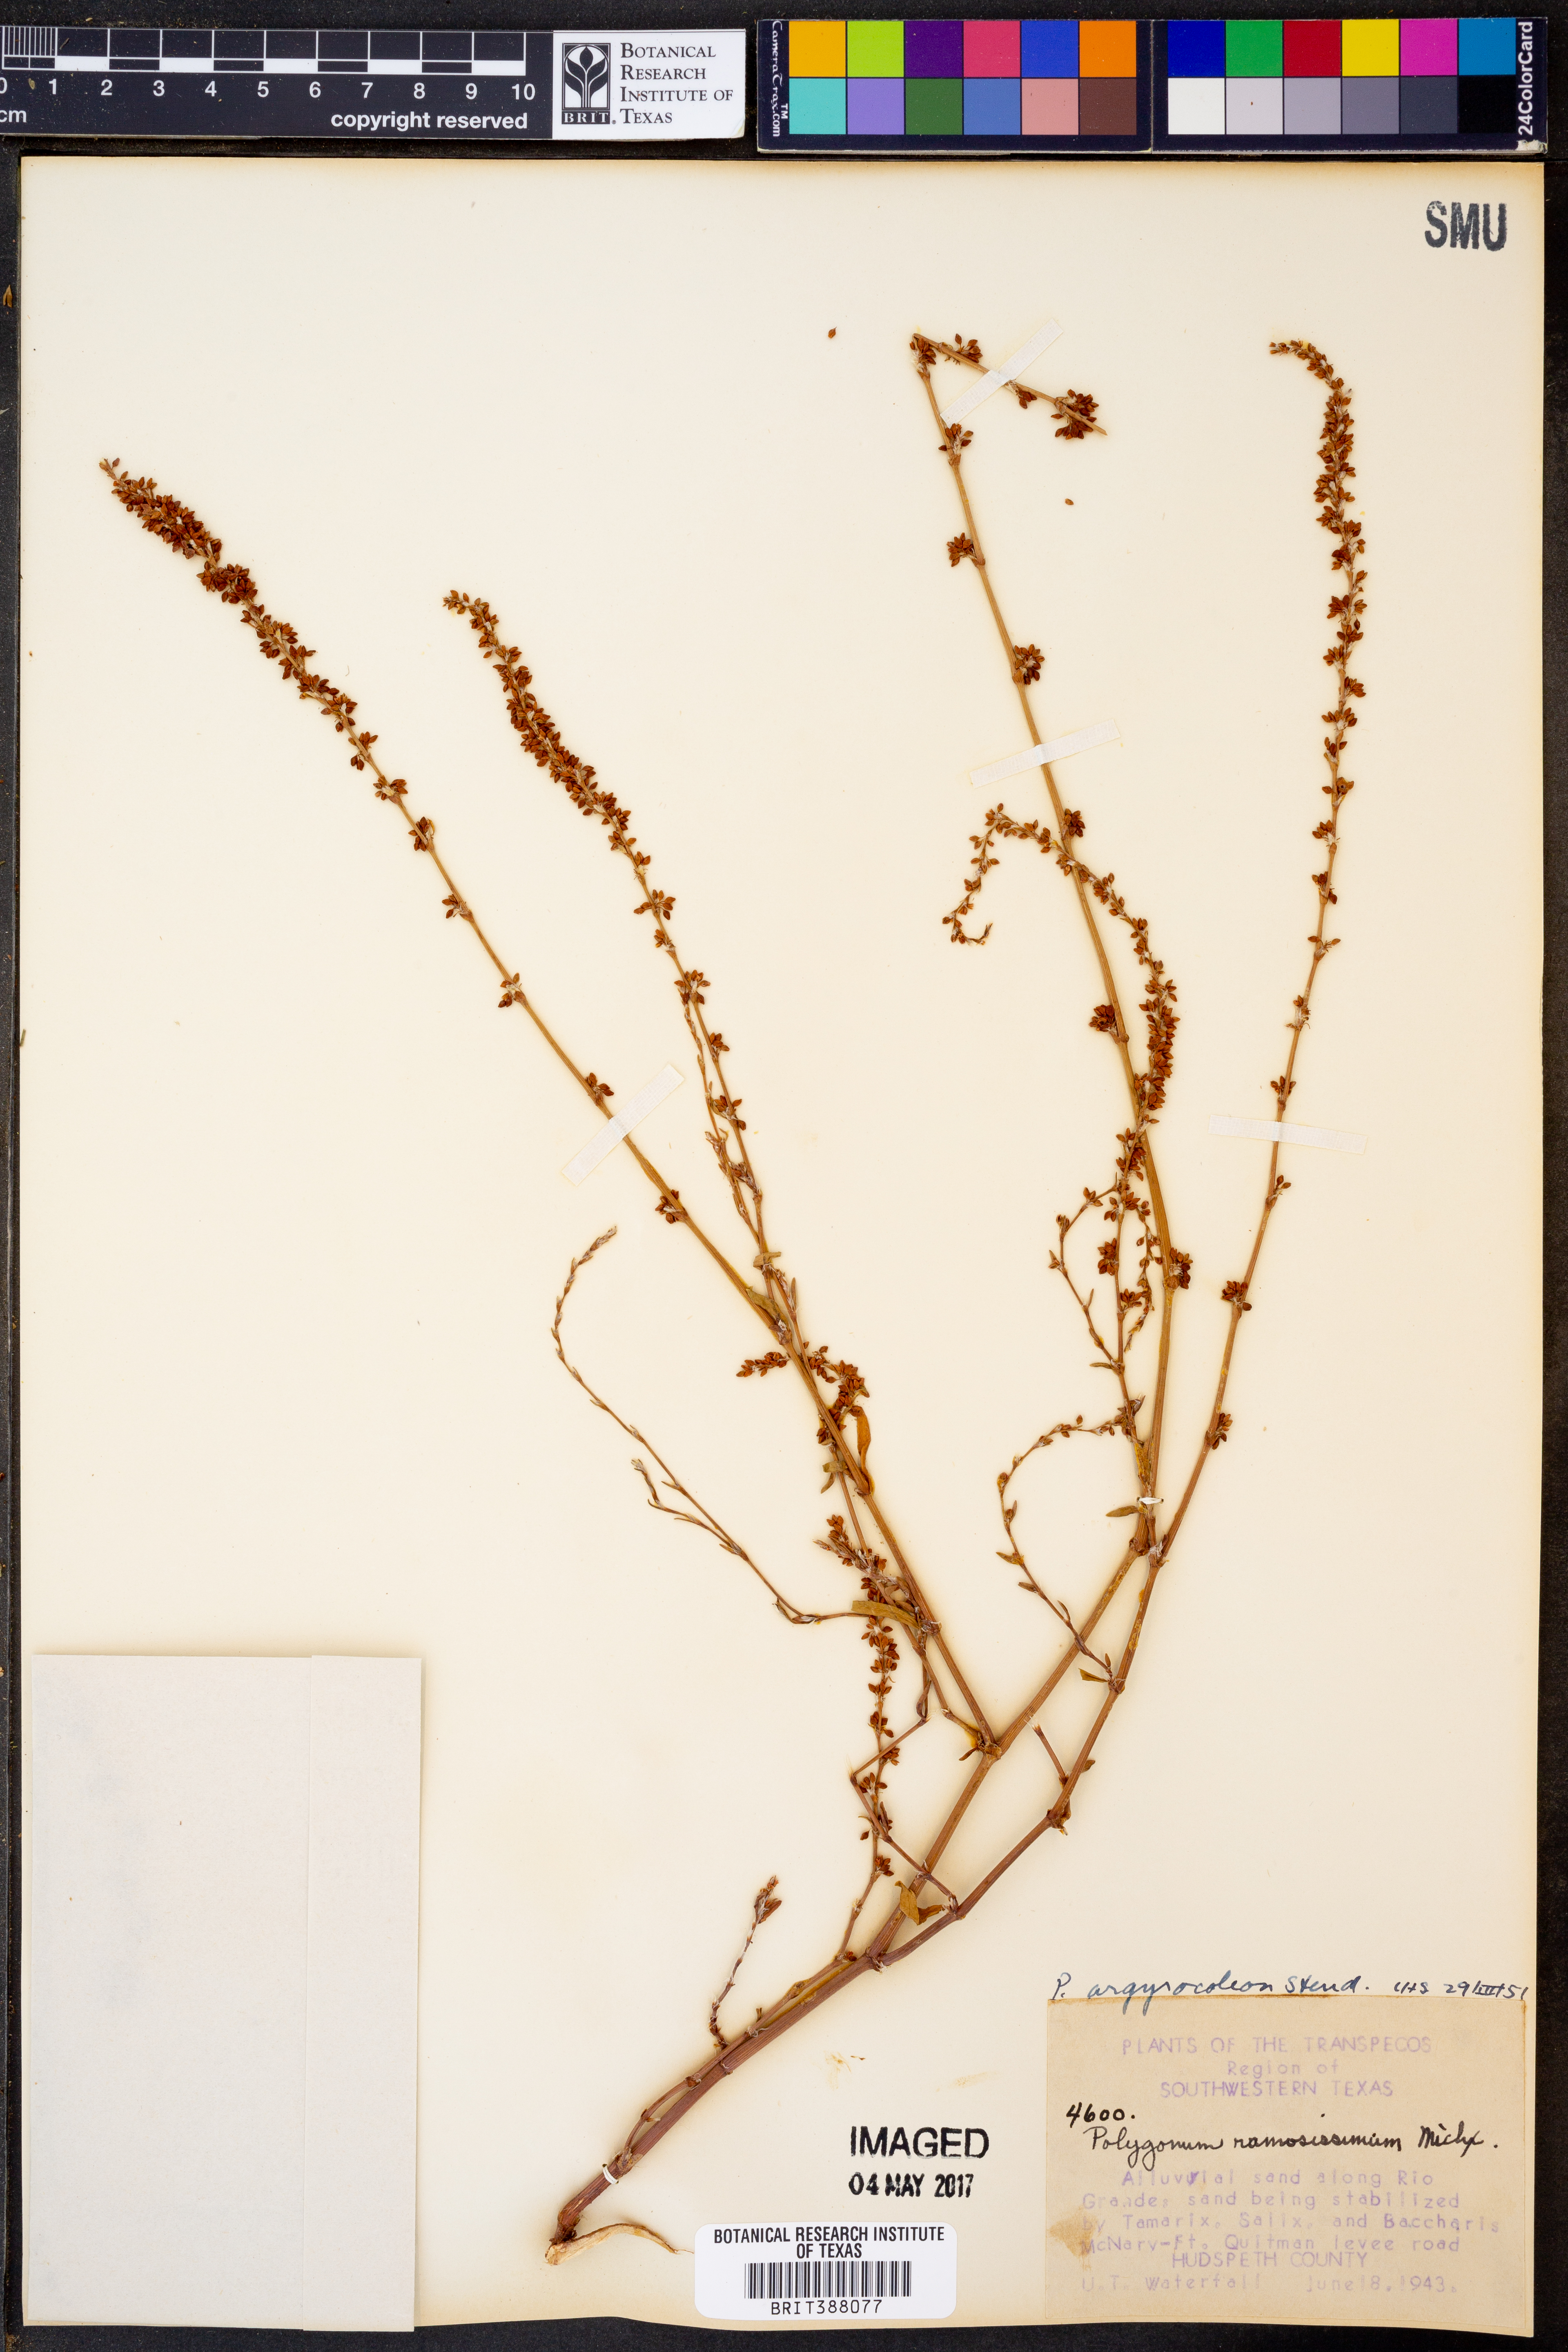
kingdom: Plantae
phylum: Tracheophyta
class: Magnoliopsida
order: Caryophyllales
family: Polygonaceae
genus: Polygonum
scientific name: Polygonum argyrocoleum
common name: Silversheath knotweed
